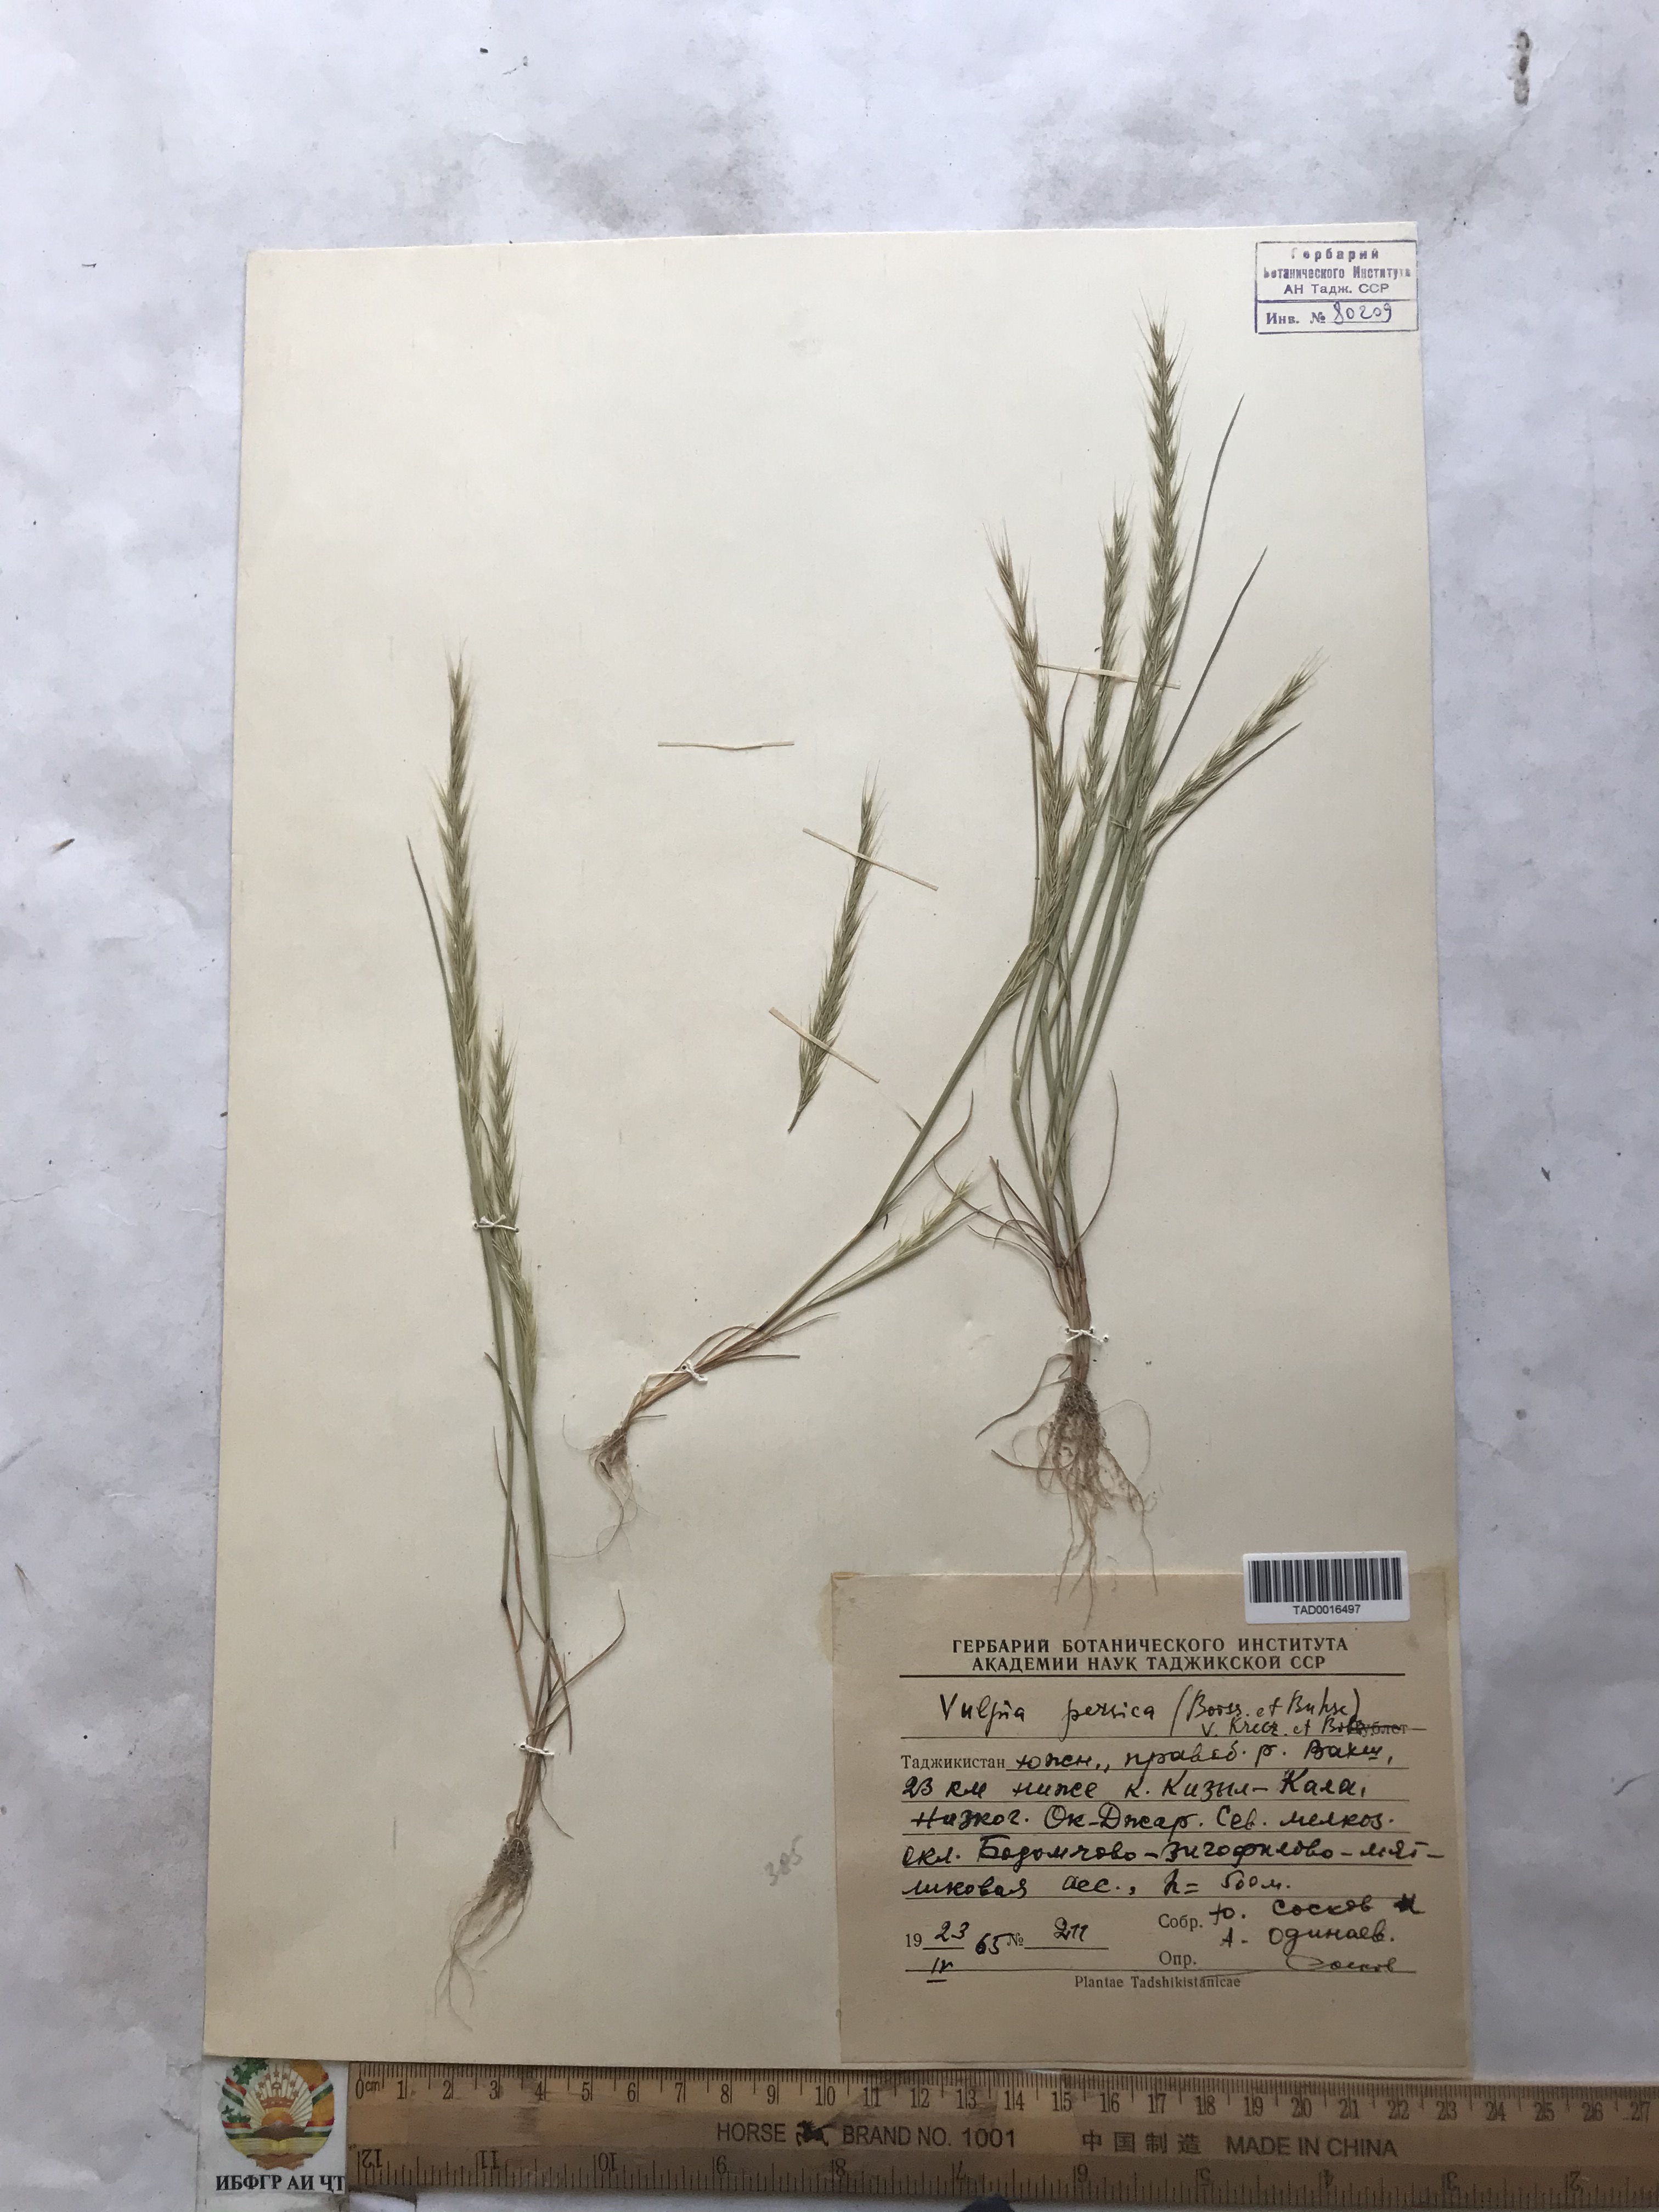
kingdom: Plantae
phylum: Tracheophyta
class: Liliopsida
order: Poales
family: Poaceae
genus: Festuca
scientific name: Festuca Vulpia persica
